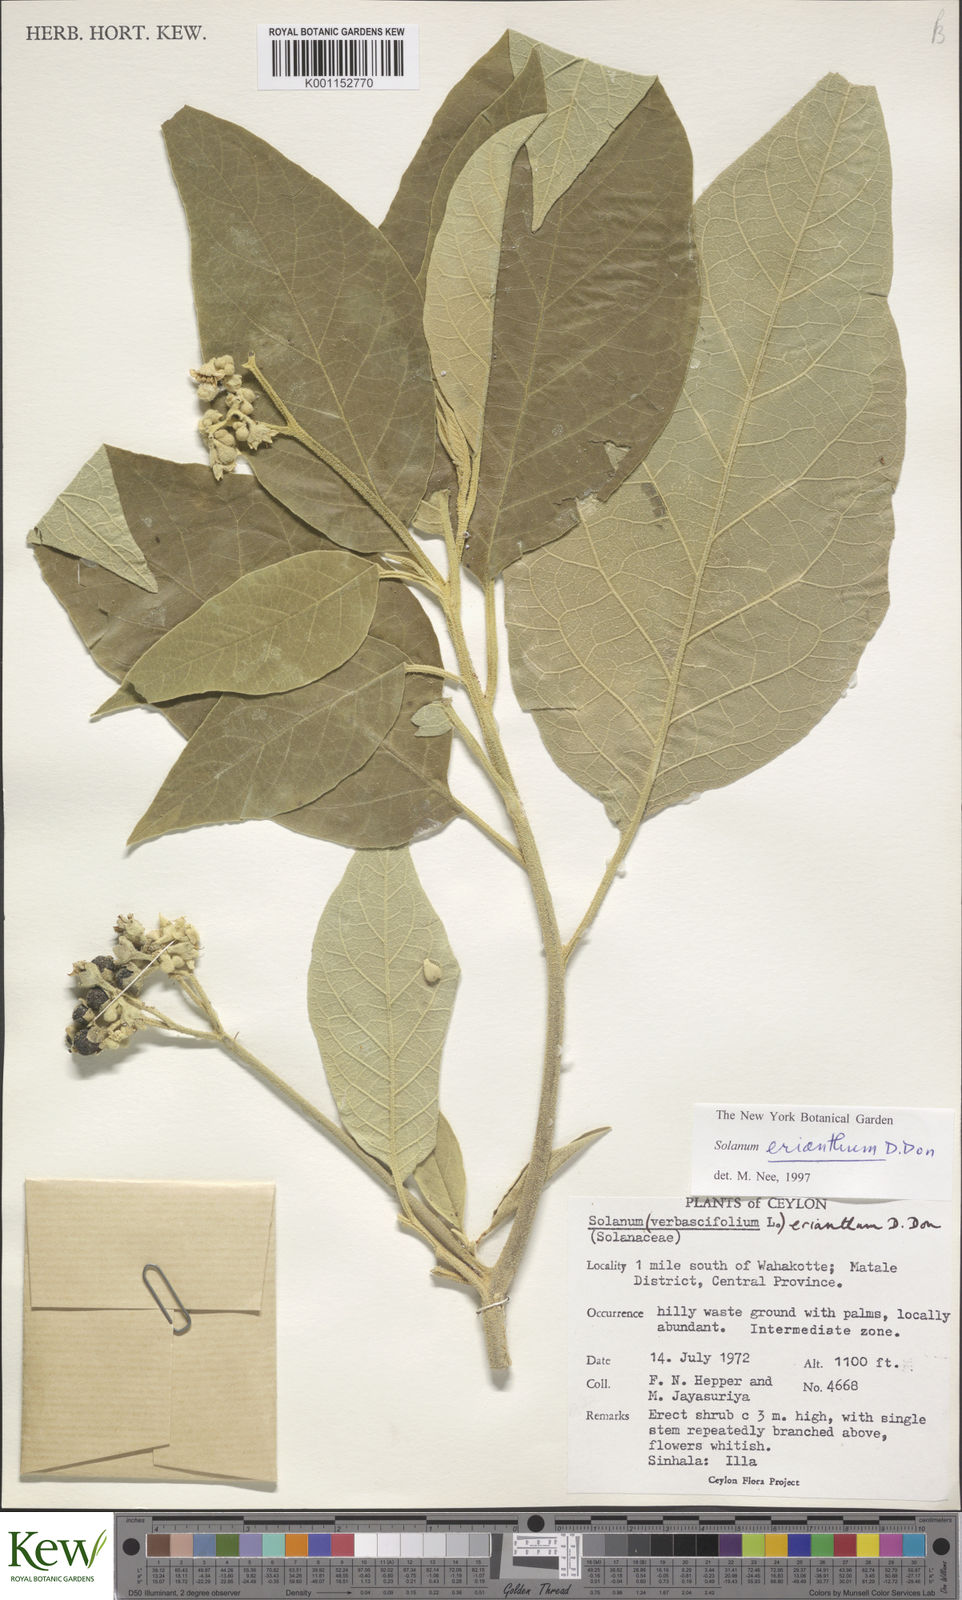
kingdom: Plantae
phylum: Tracheophyta
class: Magnoliopsida
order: Solanales
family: Solanaceae
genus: Solanum
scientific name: Solanum erianthum
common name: Tobacco-tree
